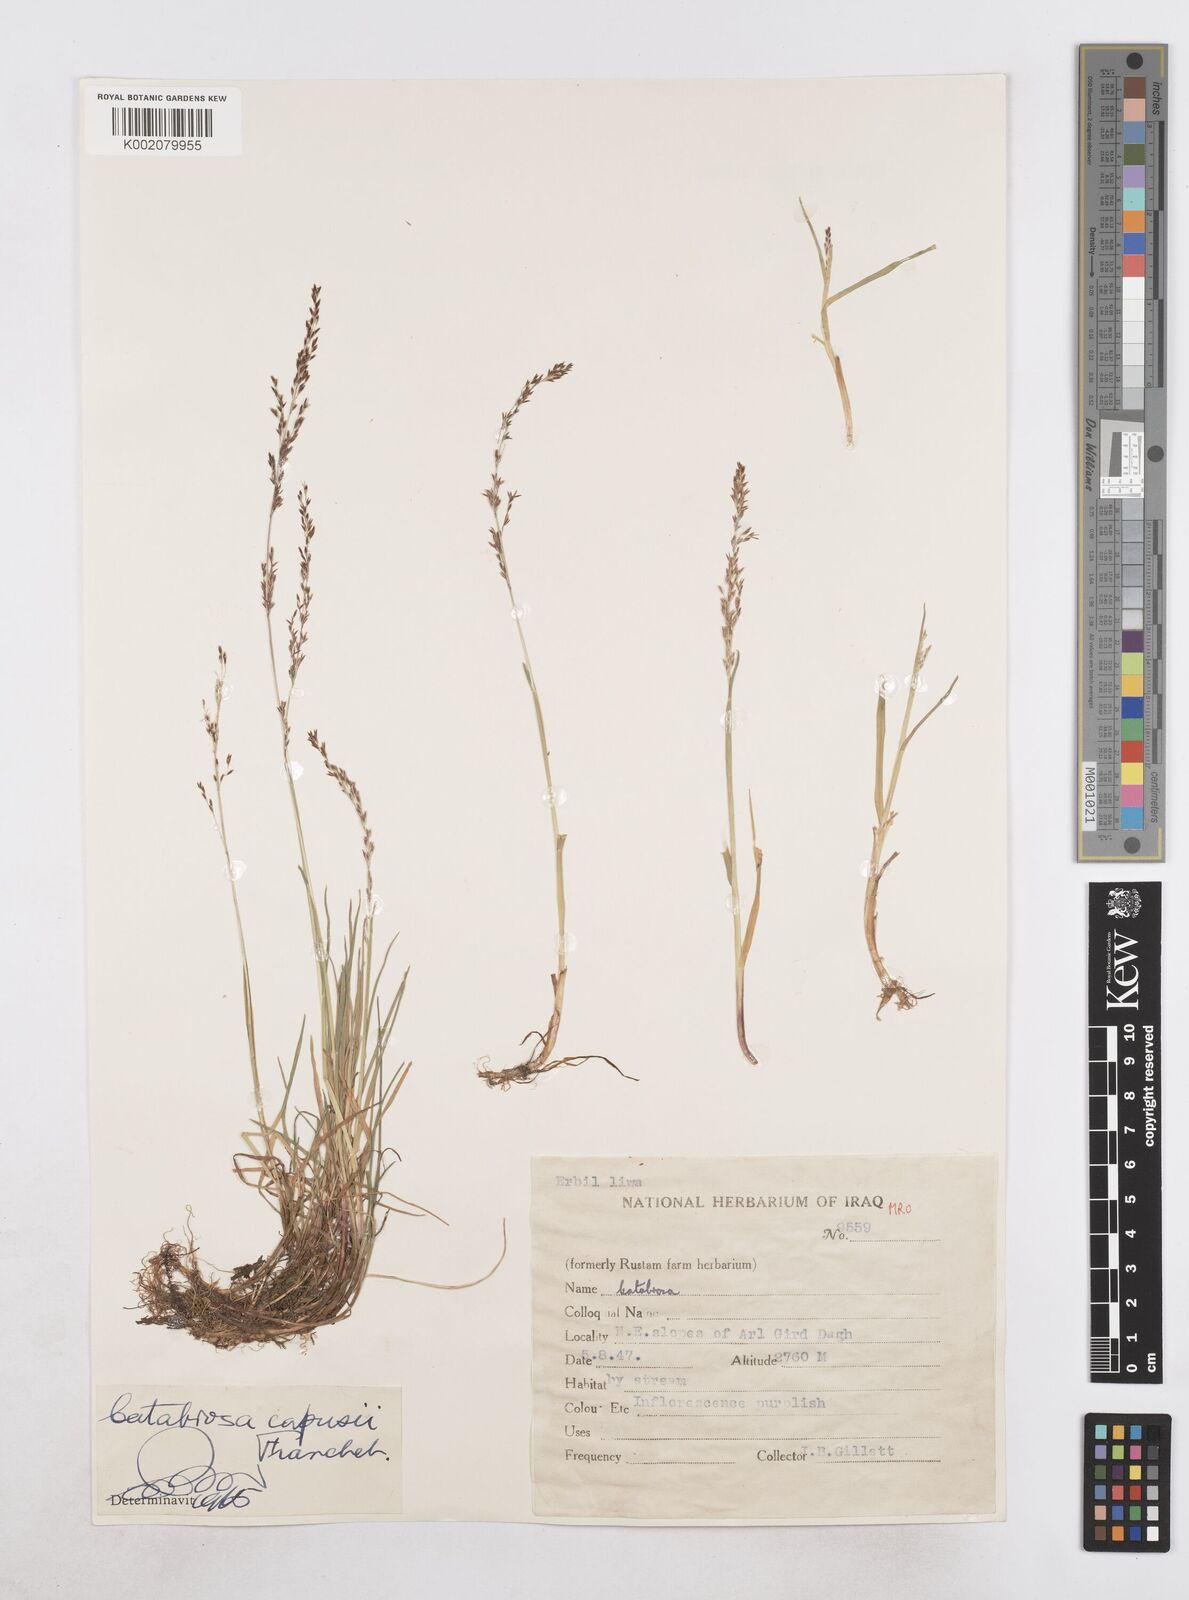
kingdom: Plantae
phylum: Tracheophyta
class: Liliopsida
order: Poales
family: Poaceae
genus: Catabrosa
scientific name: Catabrosa aquatica
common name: Whorl-grass
